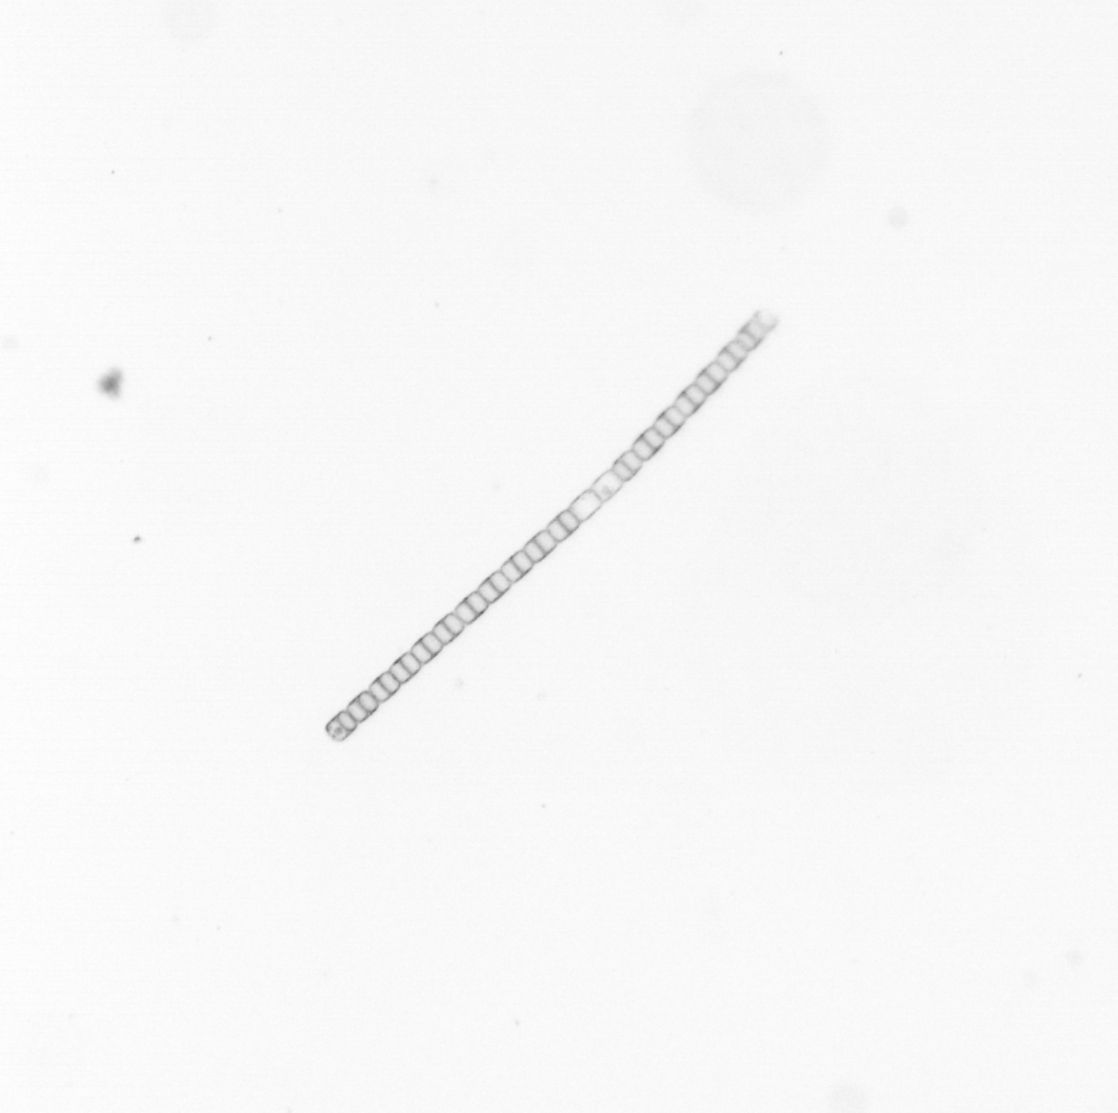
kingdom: Chromista
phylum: Ochrophyta
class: Bacillariophyceae
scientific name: Bacillariophyceae
